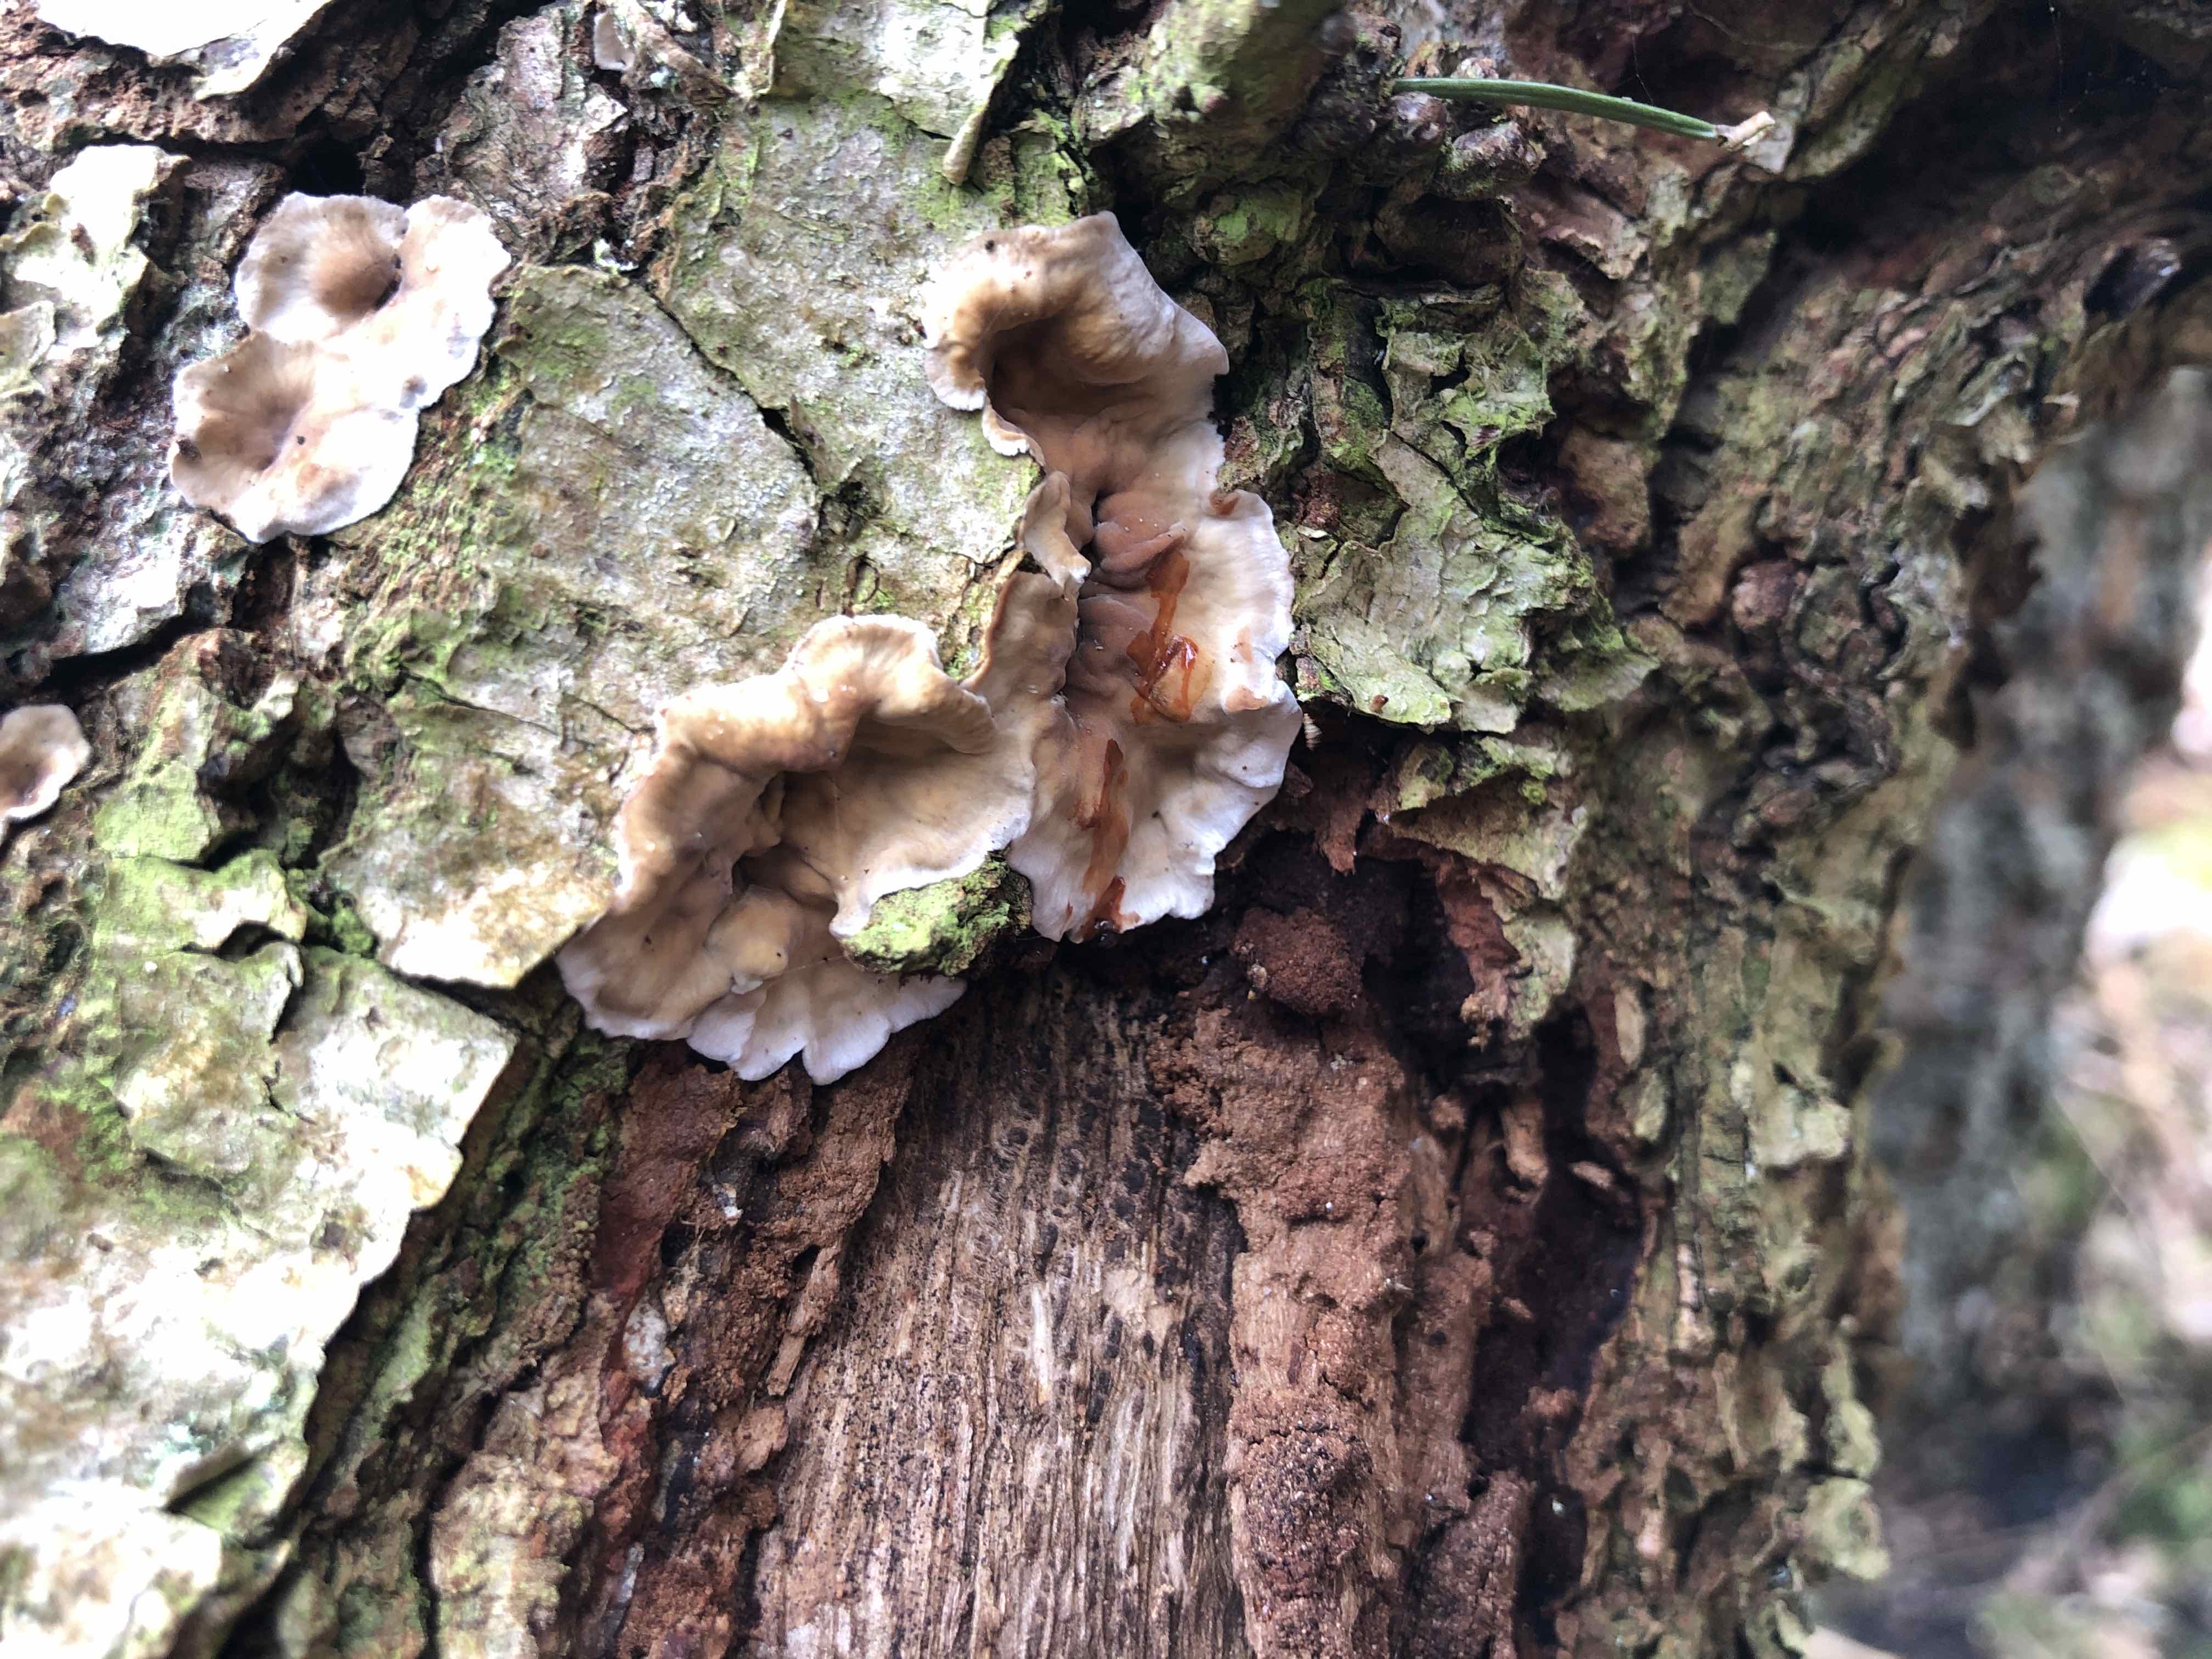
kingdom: Fungi
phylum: Basidiomycota
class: Agaricomycetes
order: Russulales
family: Stereaceae
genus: Stereum
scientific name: Stereum gausapatum
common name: tynd lædersvamp
